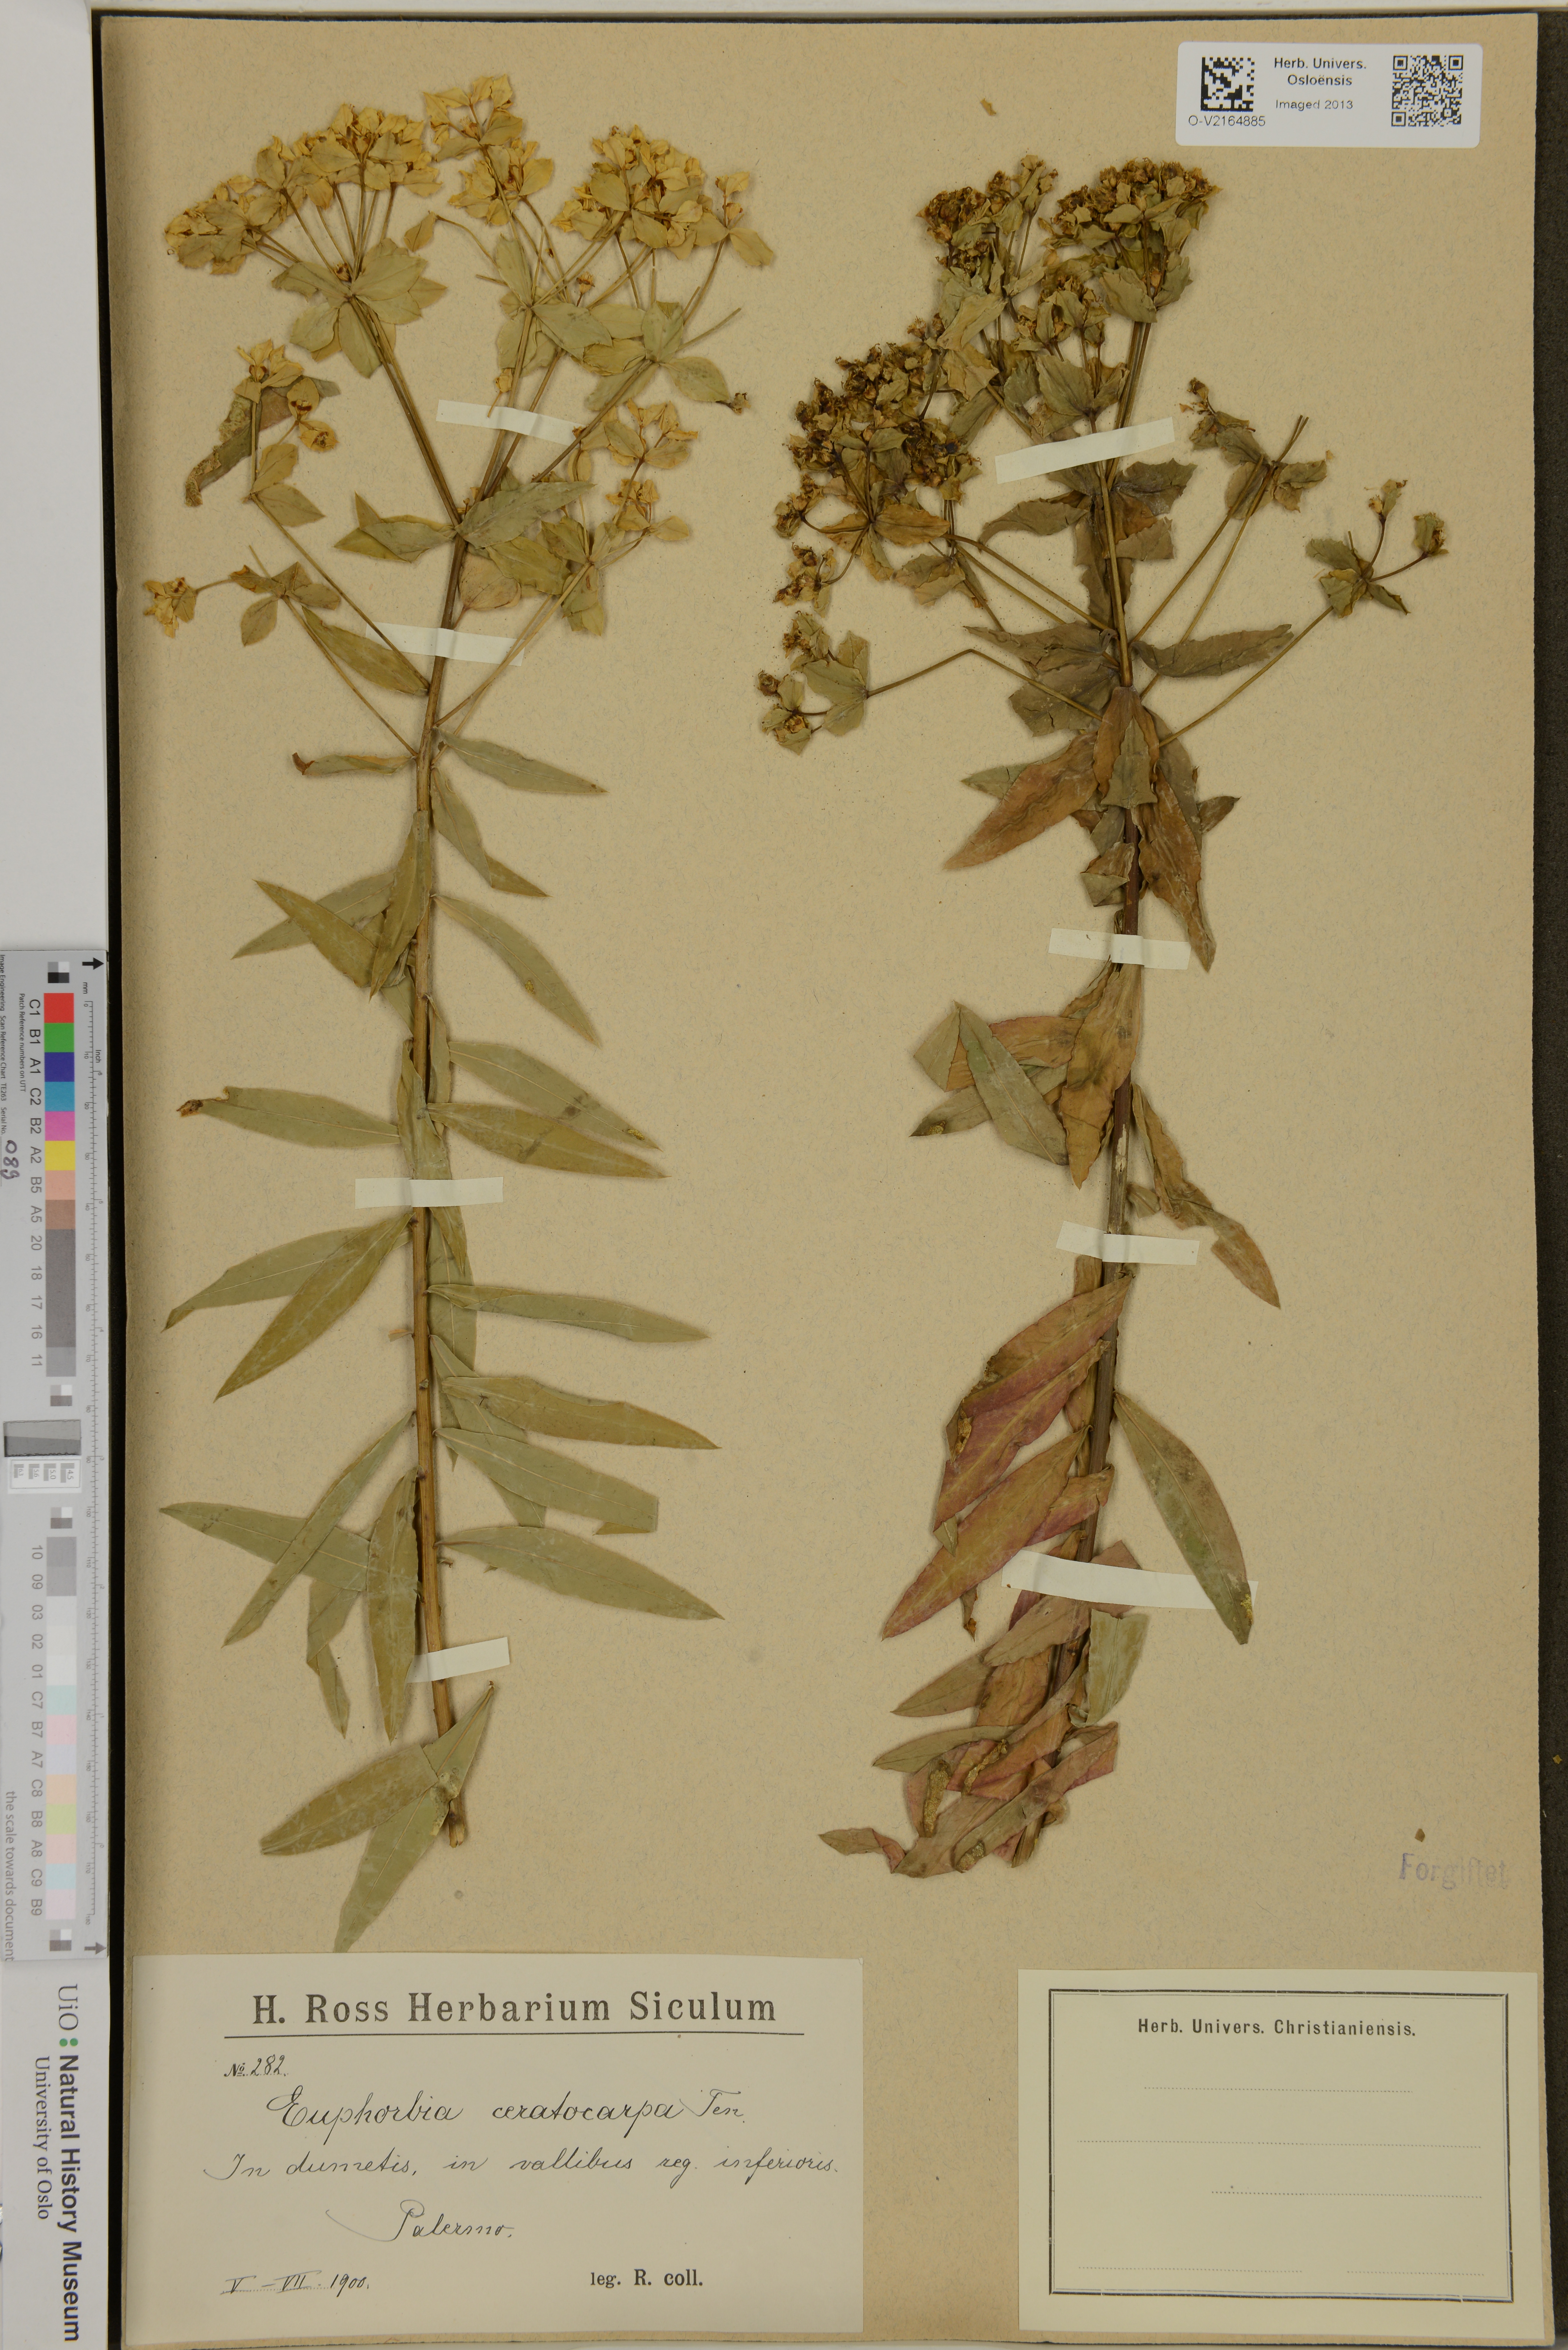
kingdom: Plantae
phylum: Tracheophyta
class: Magnoliopsida
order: Malpighiales
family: Euphorbiaceae
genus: Euphorbia
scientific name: Euphorbia ceratocarpa
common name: Horned spurge
